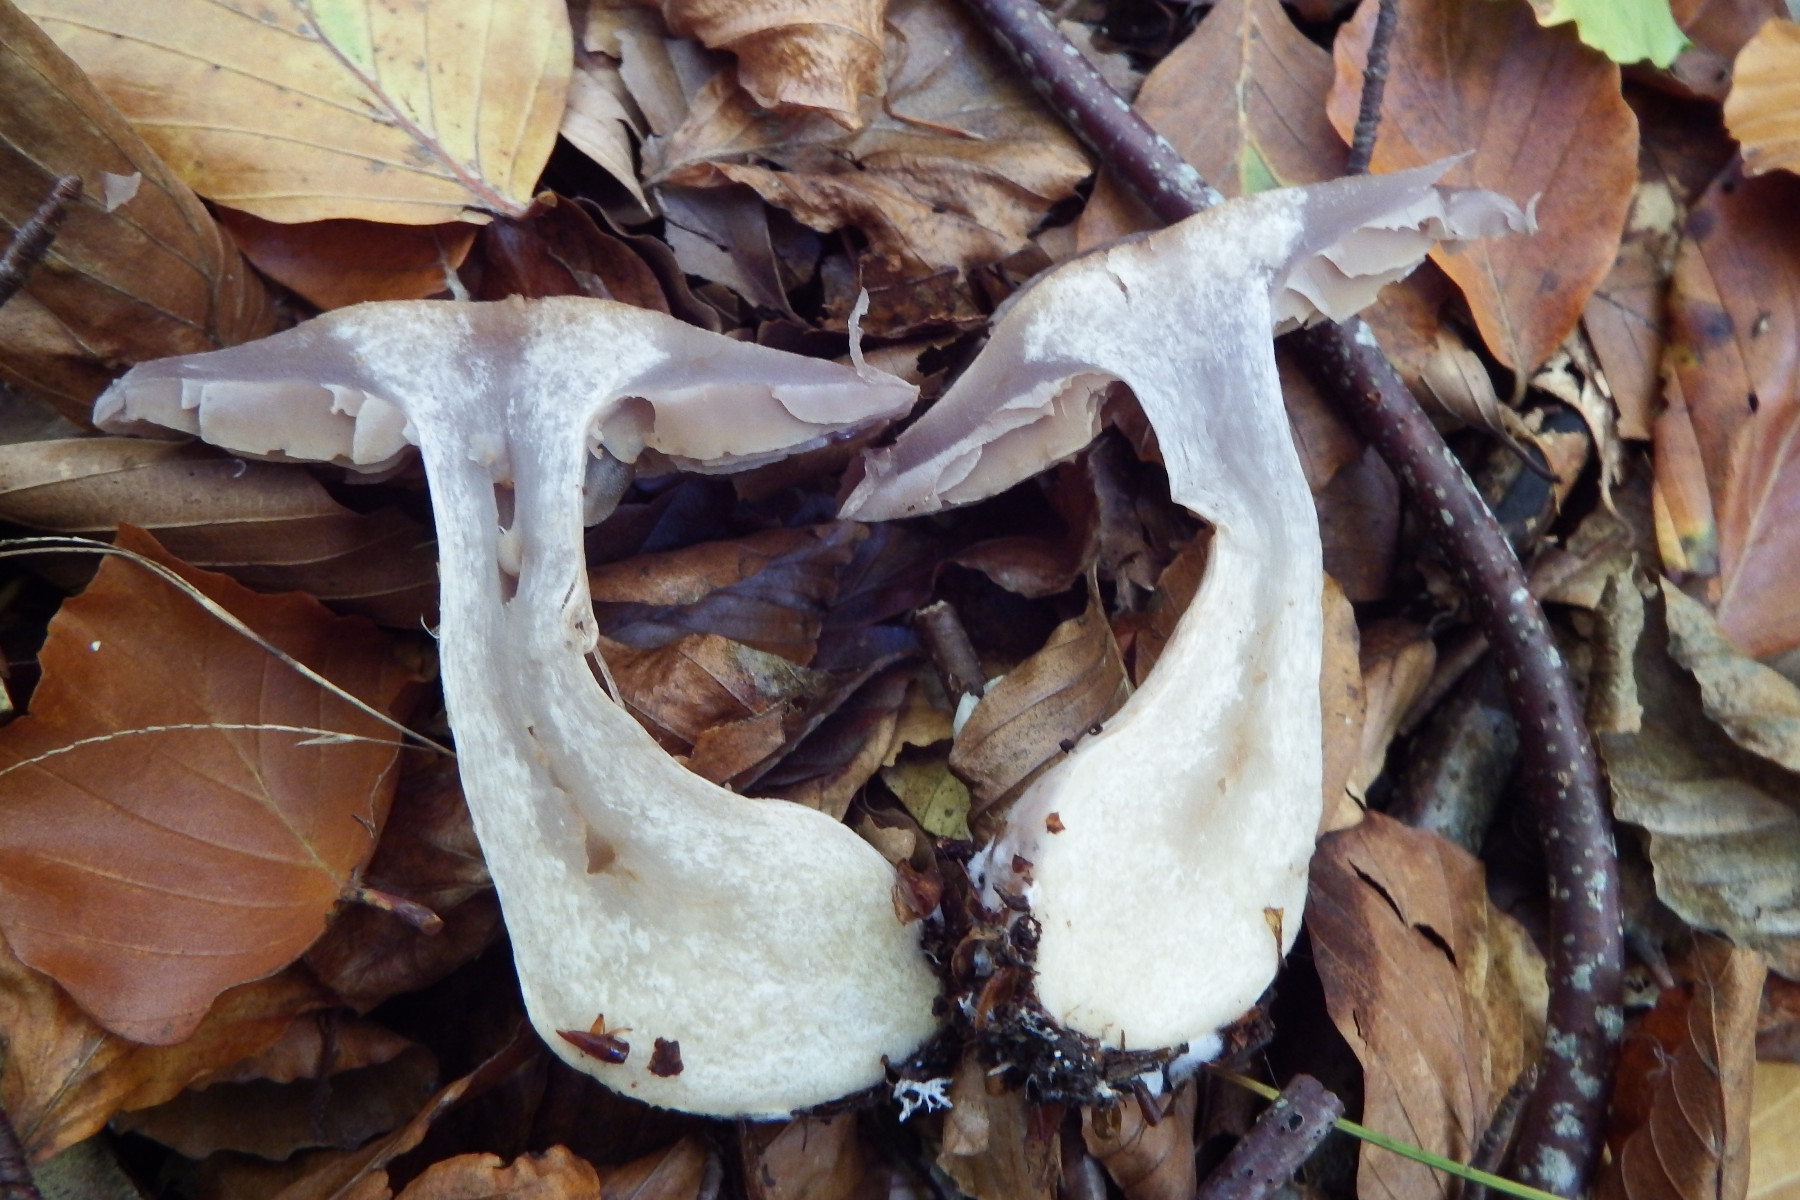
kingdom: Fungi
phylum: Basidiomycota
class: Agaricomycetes
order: Agaricales
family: Cortinariaceae
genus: Cortinarius
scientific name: Cortinarius
